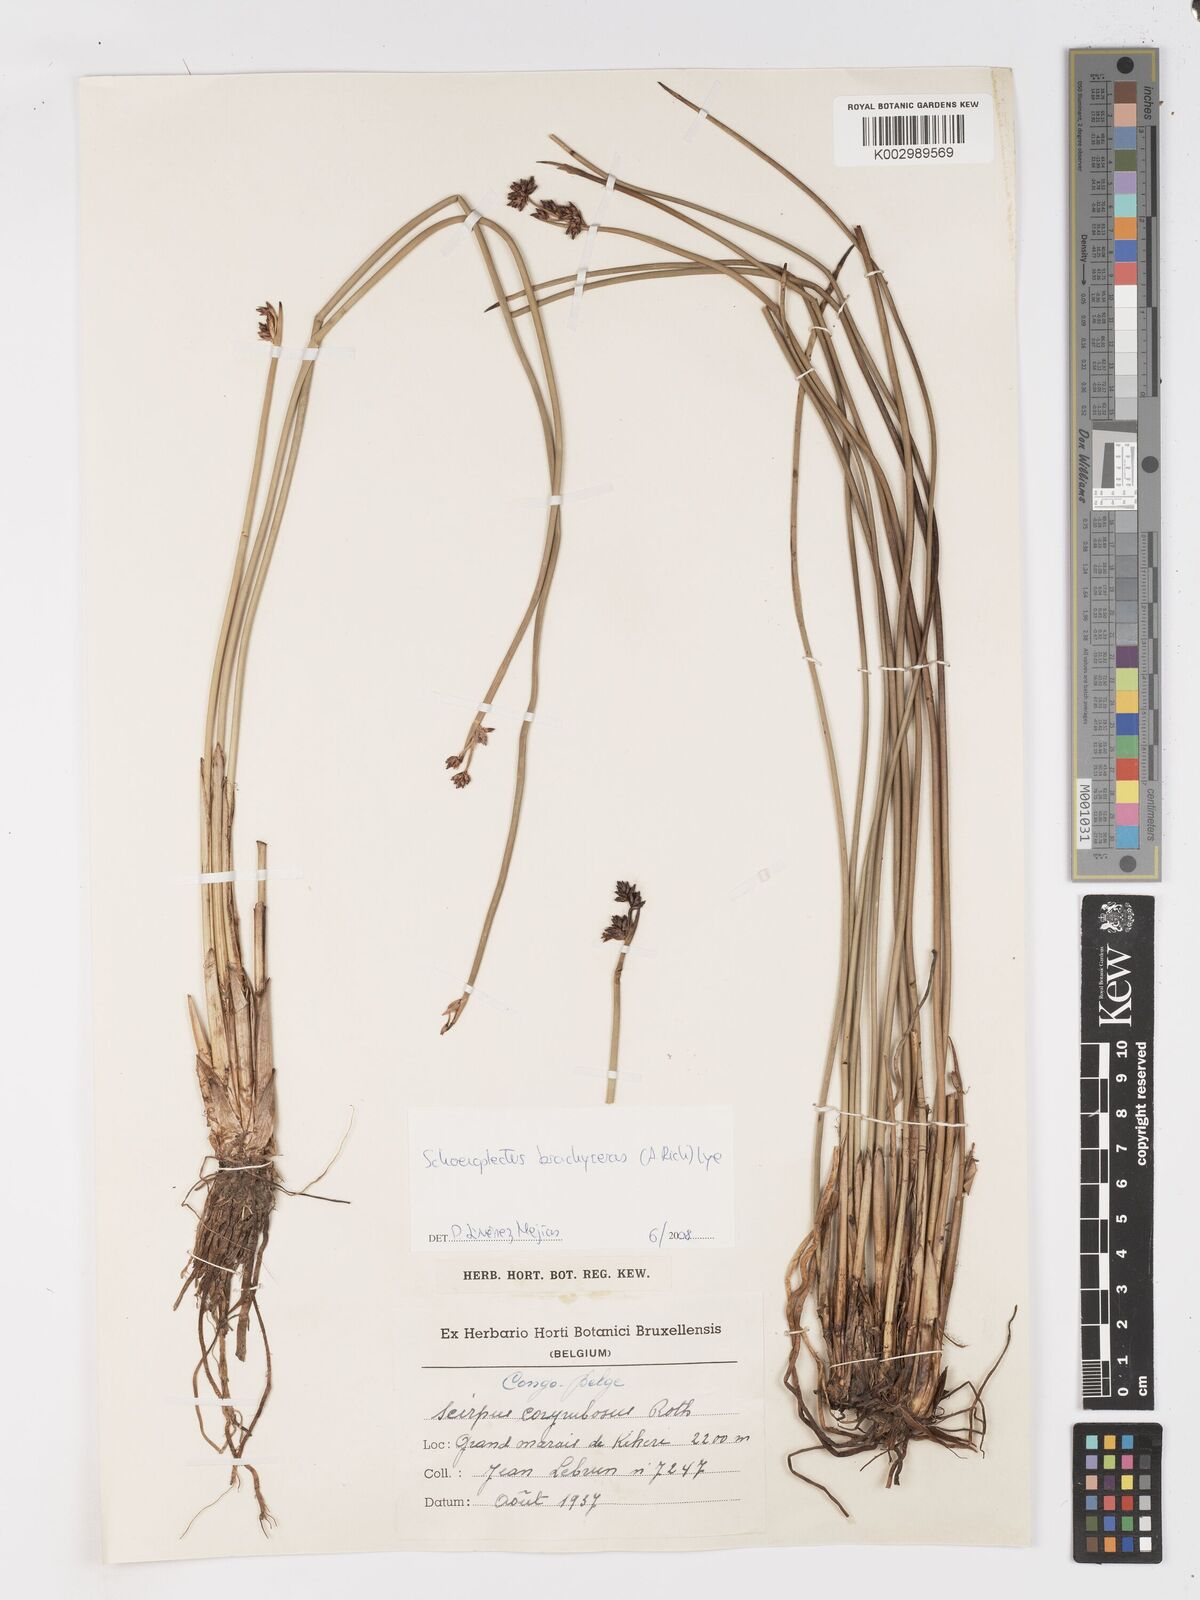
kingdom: Plantae
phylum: Tracheophyta
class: Liliopsida
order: Poales
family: Cyperaceae
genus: Schoenoplectiella
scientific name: Schoenoplectiella corymbosa
